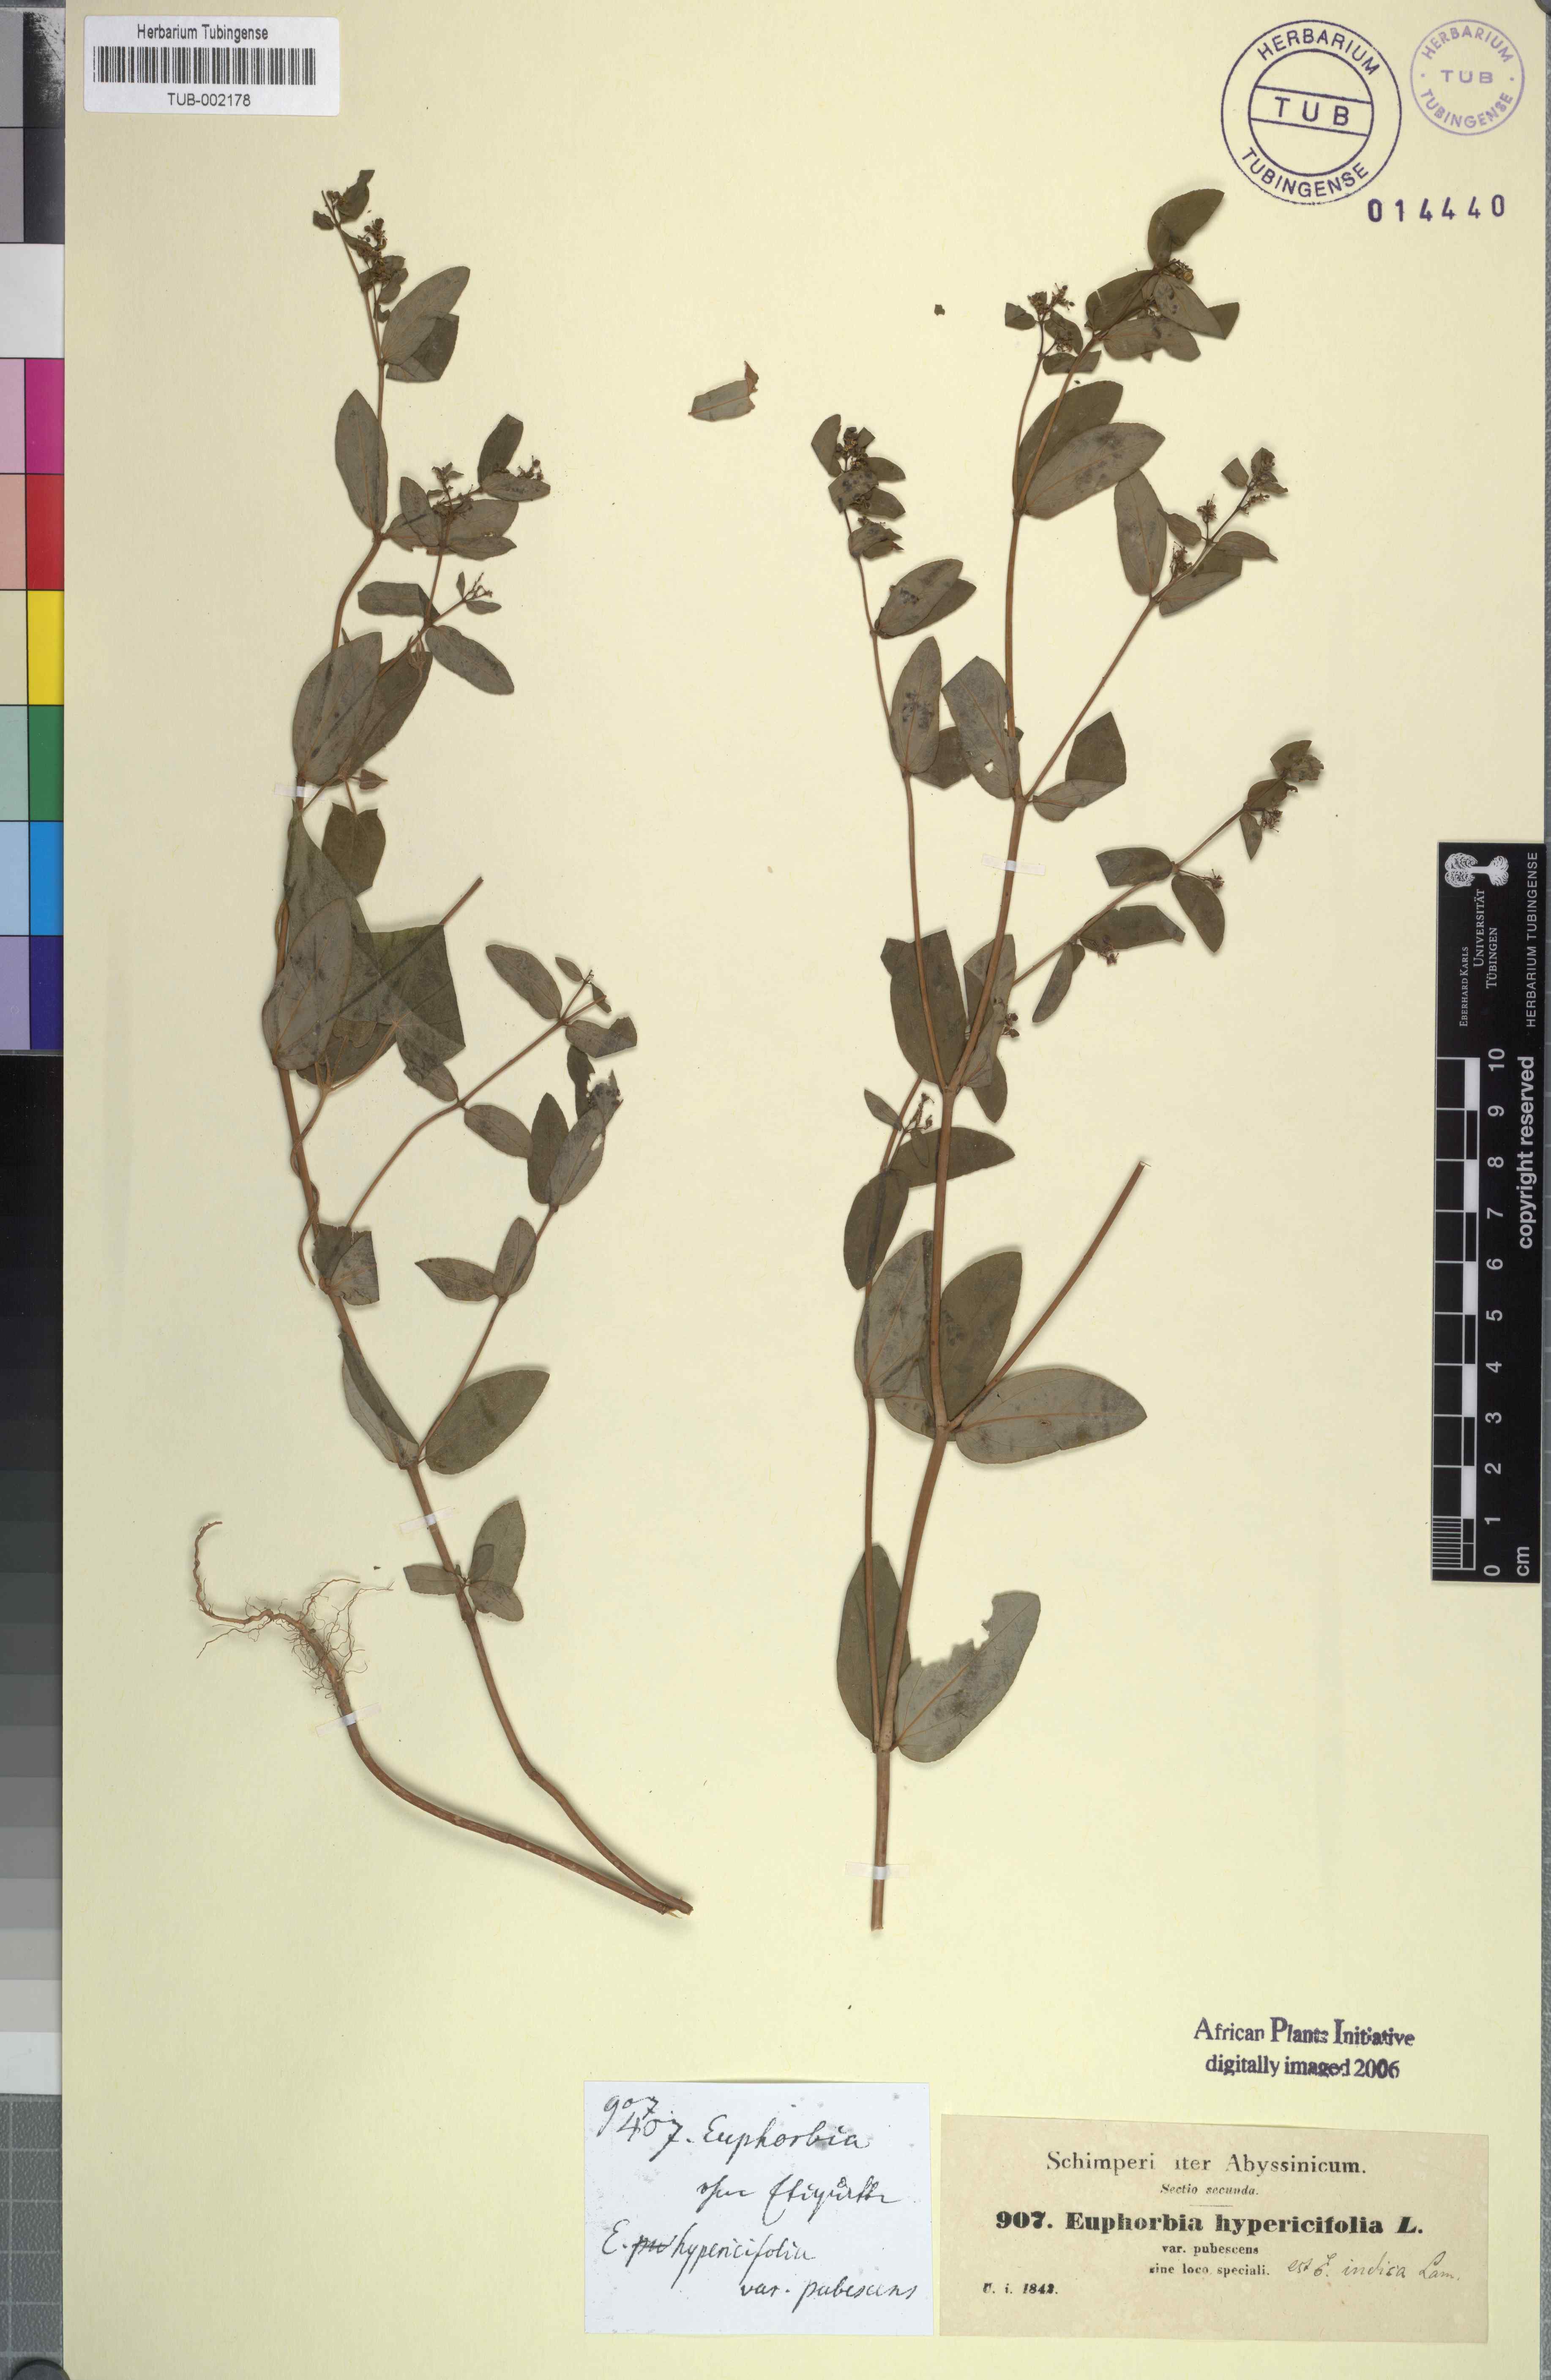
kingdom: Plantae
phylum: Tracheophyta
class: Magnoliopsida
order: Malpighiales
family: Euphorbiaceae
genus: Euphorbia
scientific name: Euphorbia indica
